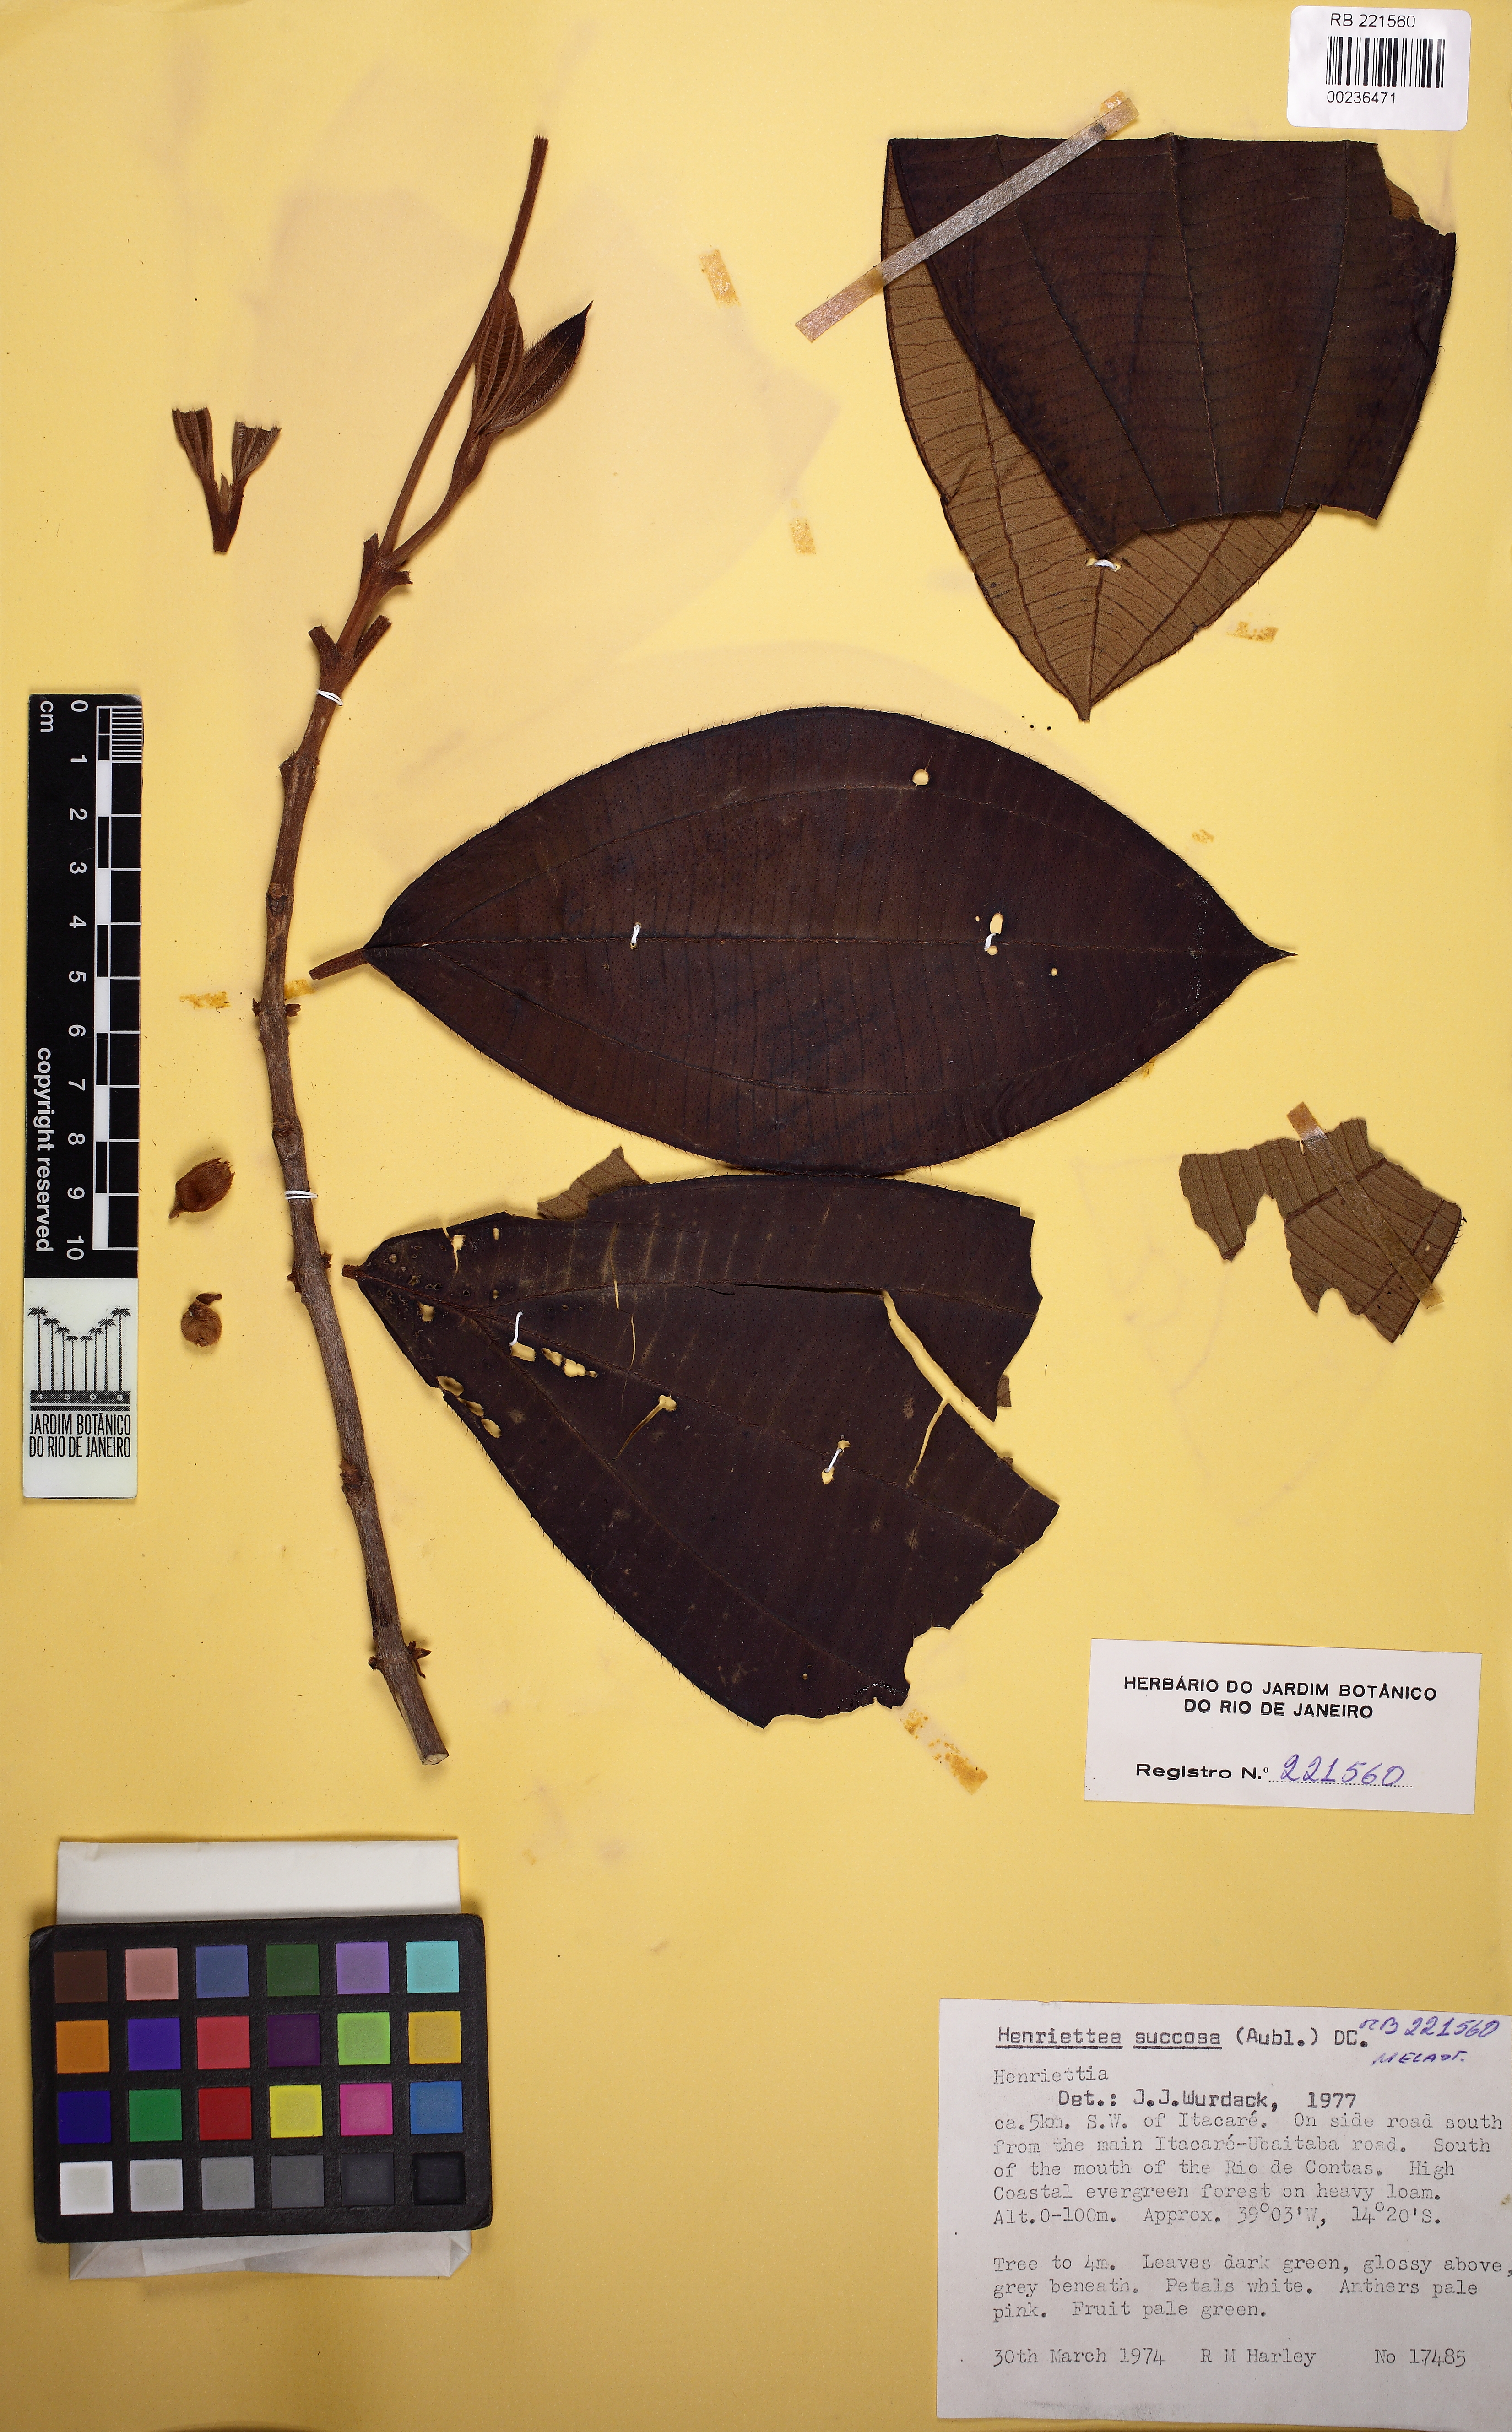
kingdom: Plantae
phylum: Tracheophyta
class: Magnoliopsida
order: Myrtales
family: Melastomataceae
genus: Henriettea
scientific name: Henriettea succosa
